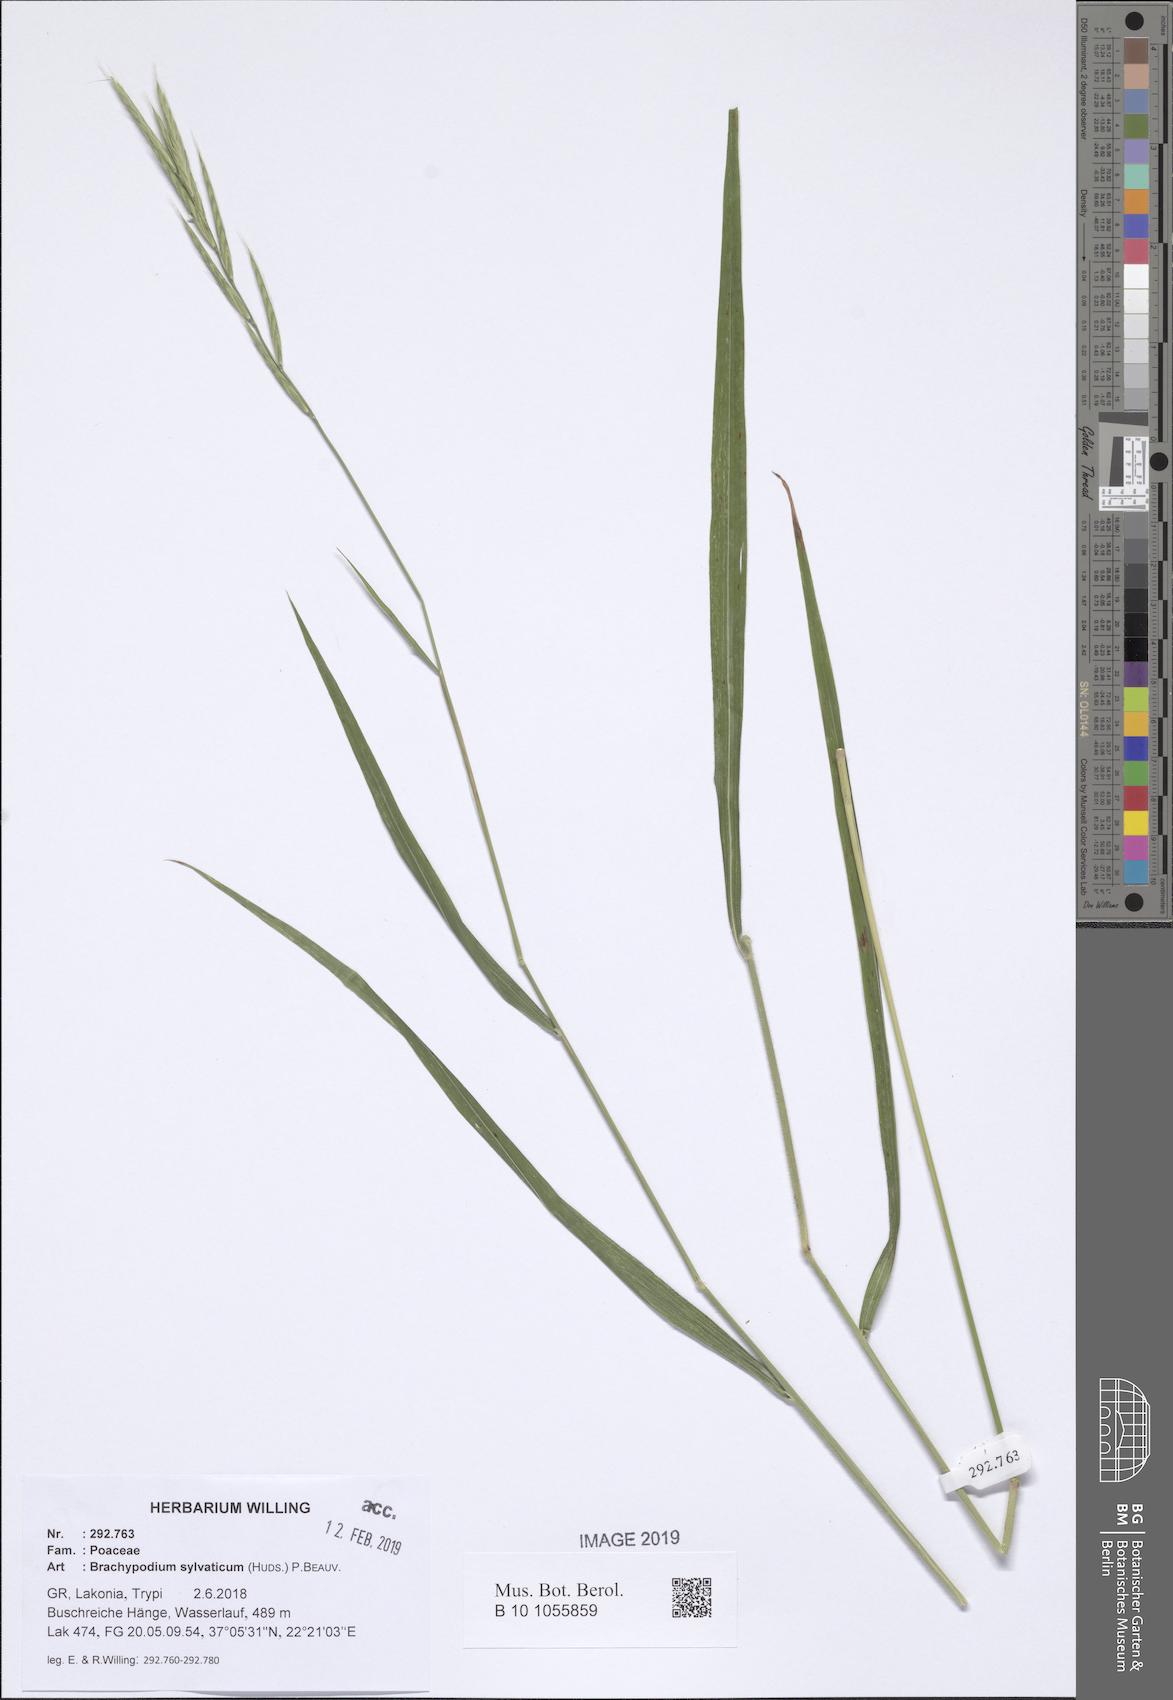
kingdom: Plantae
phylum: Tracheophyta
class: Liliopsida
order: Poales
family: Poaceae
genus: Brachypodium
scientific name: Brachypodium sylvaticum
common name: False-brome
